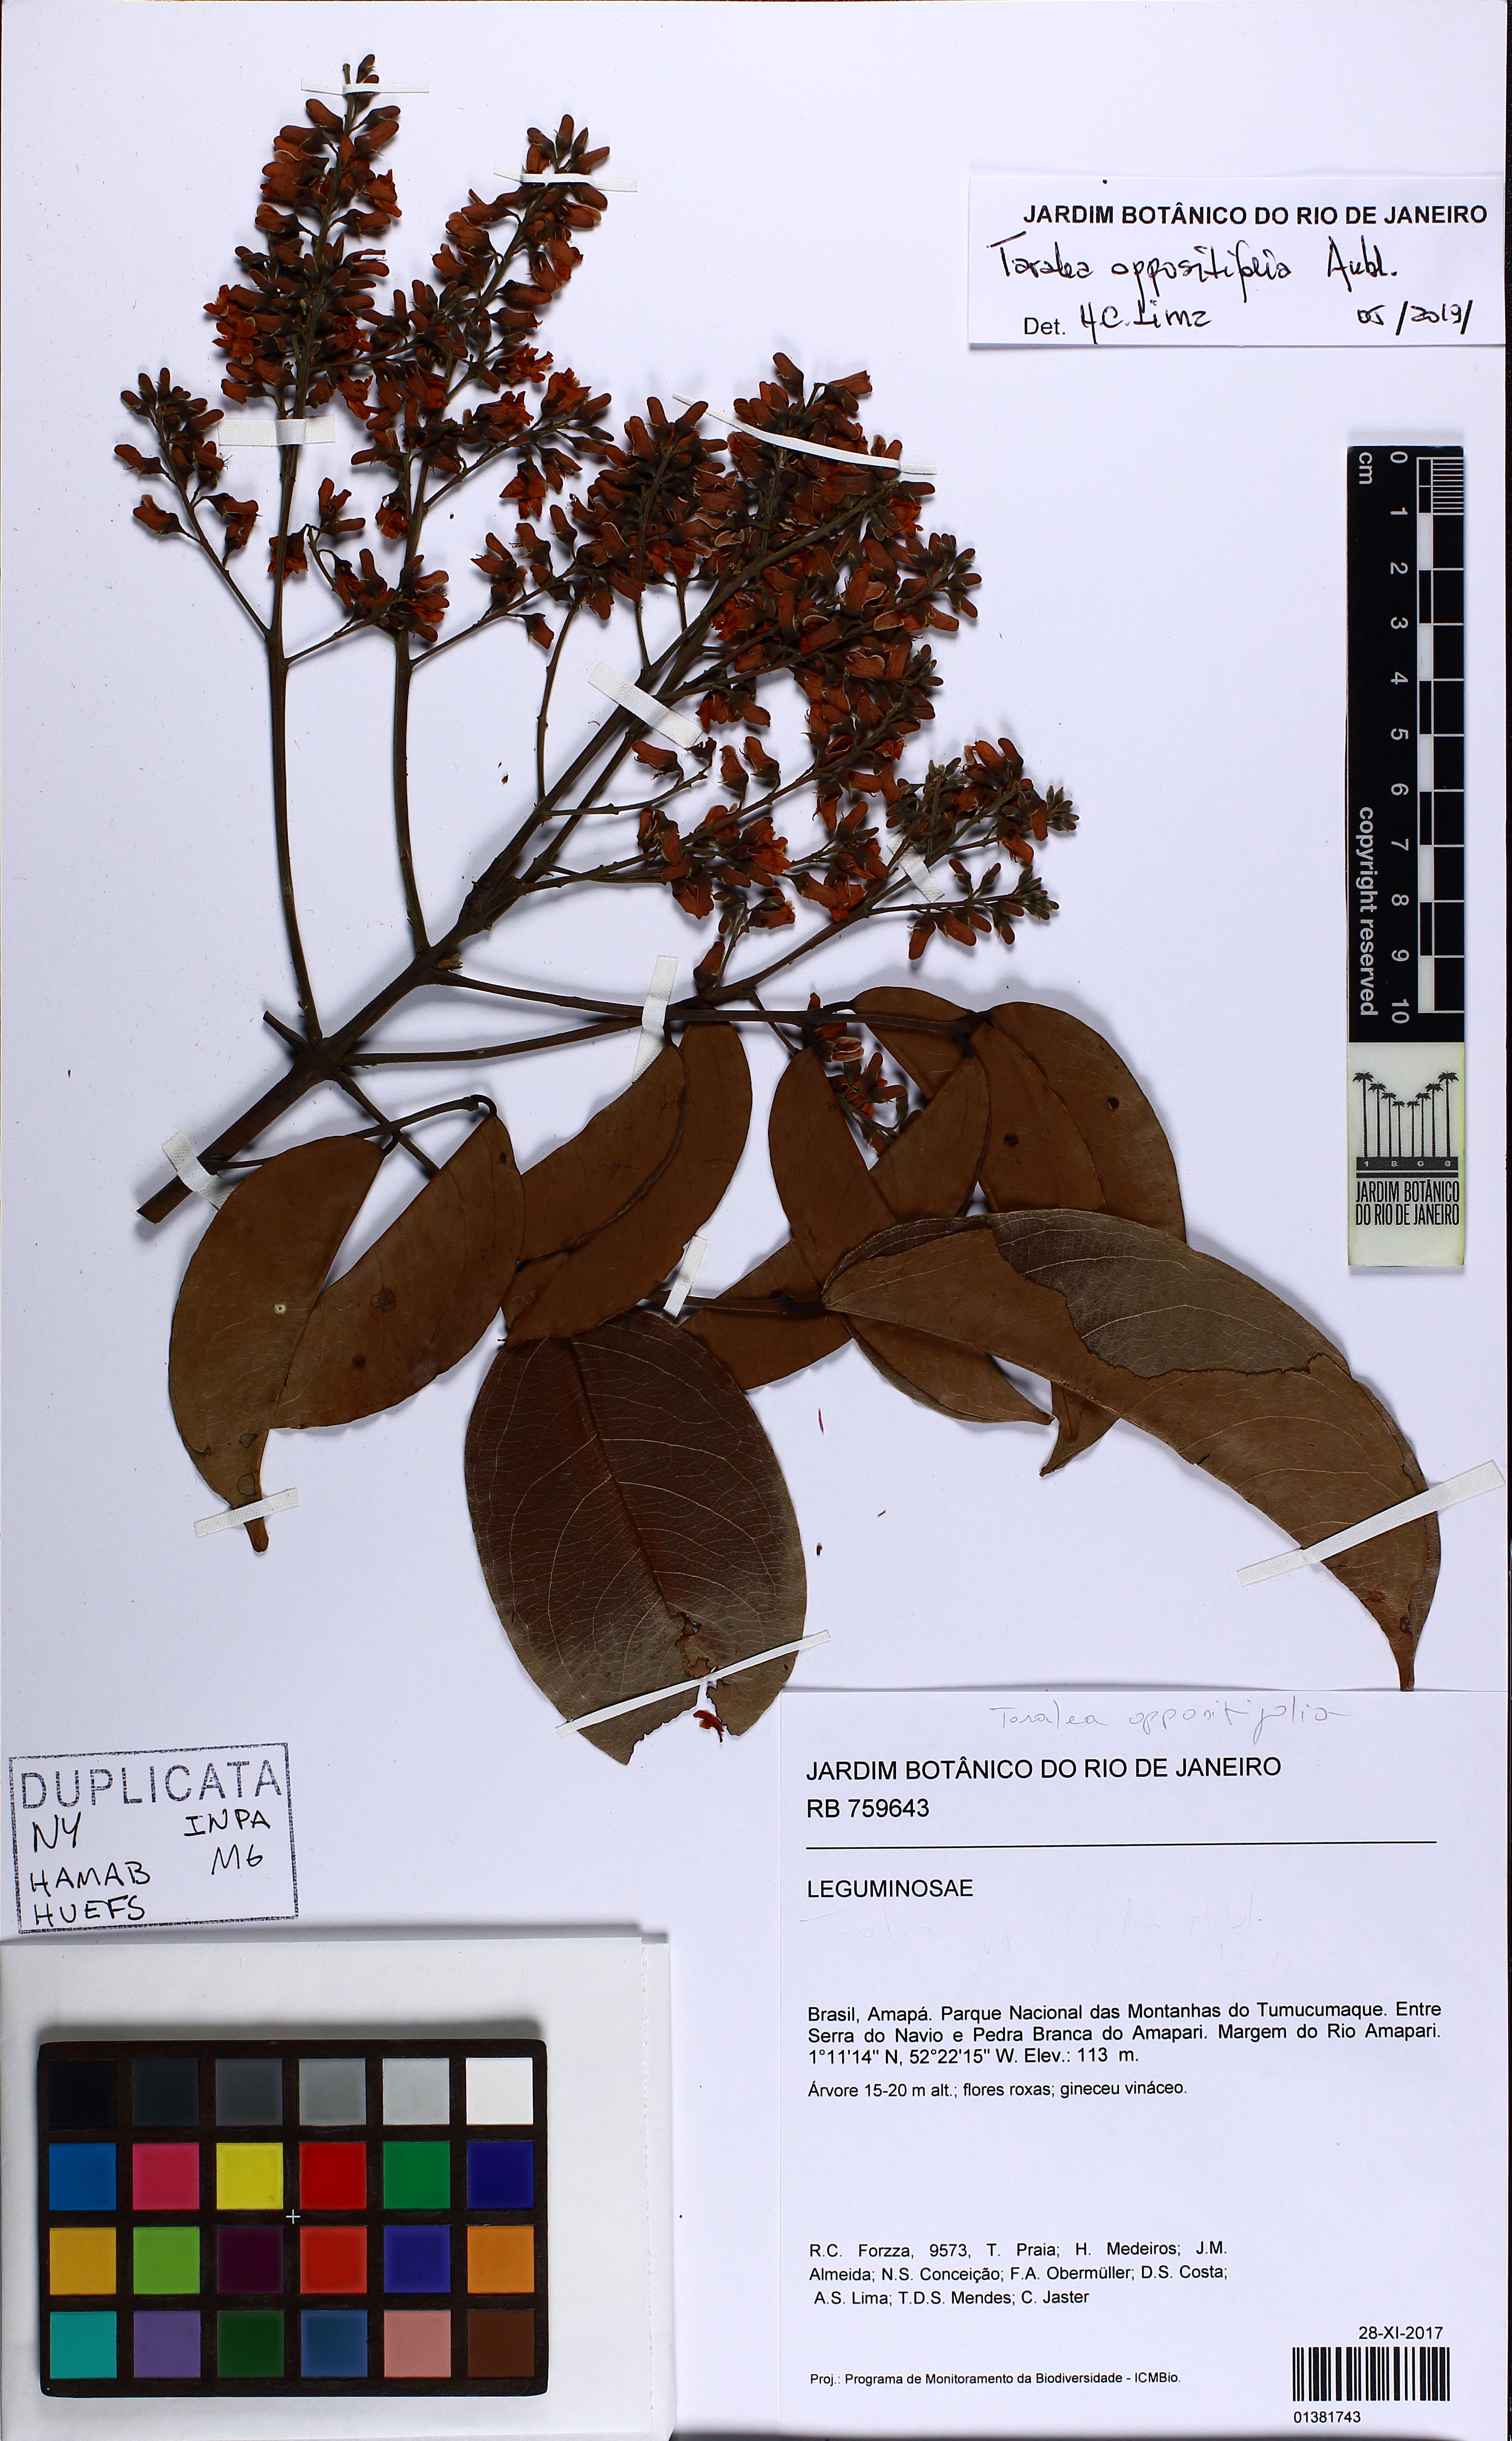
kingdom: Plantae
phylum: Tracheophyta
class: Magnoliopsida
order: Fabales
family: Fabaceae
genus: Taralea
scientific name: Taralea oppositifolia
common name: Tonka
